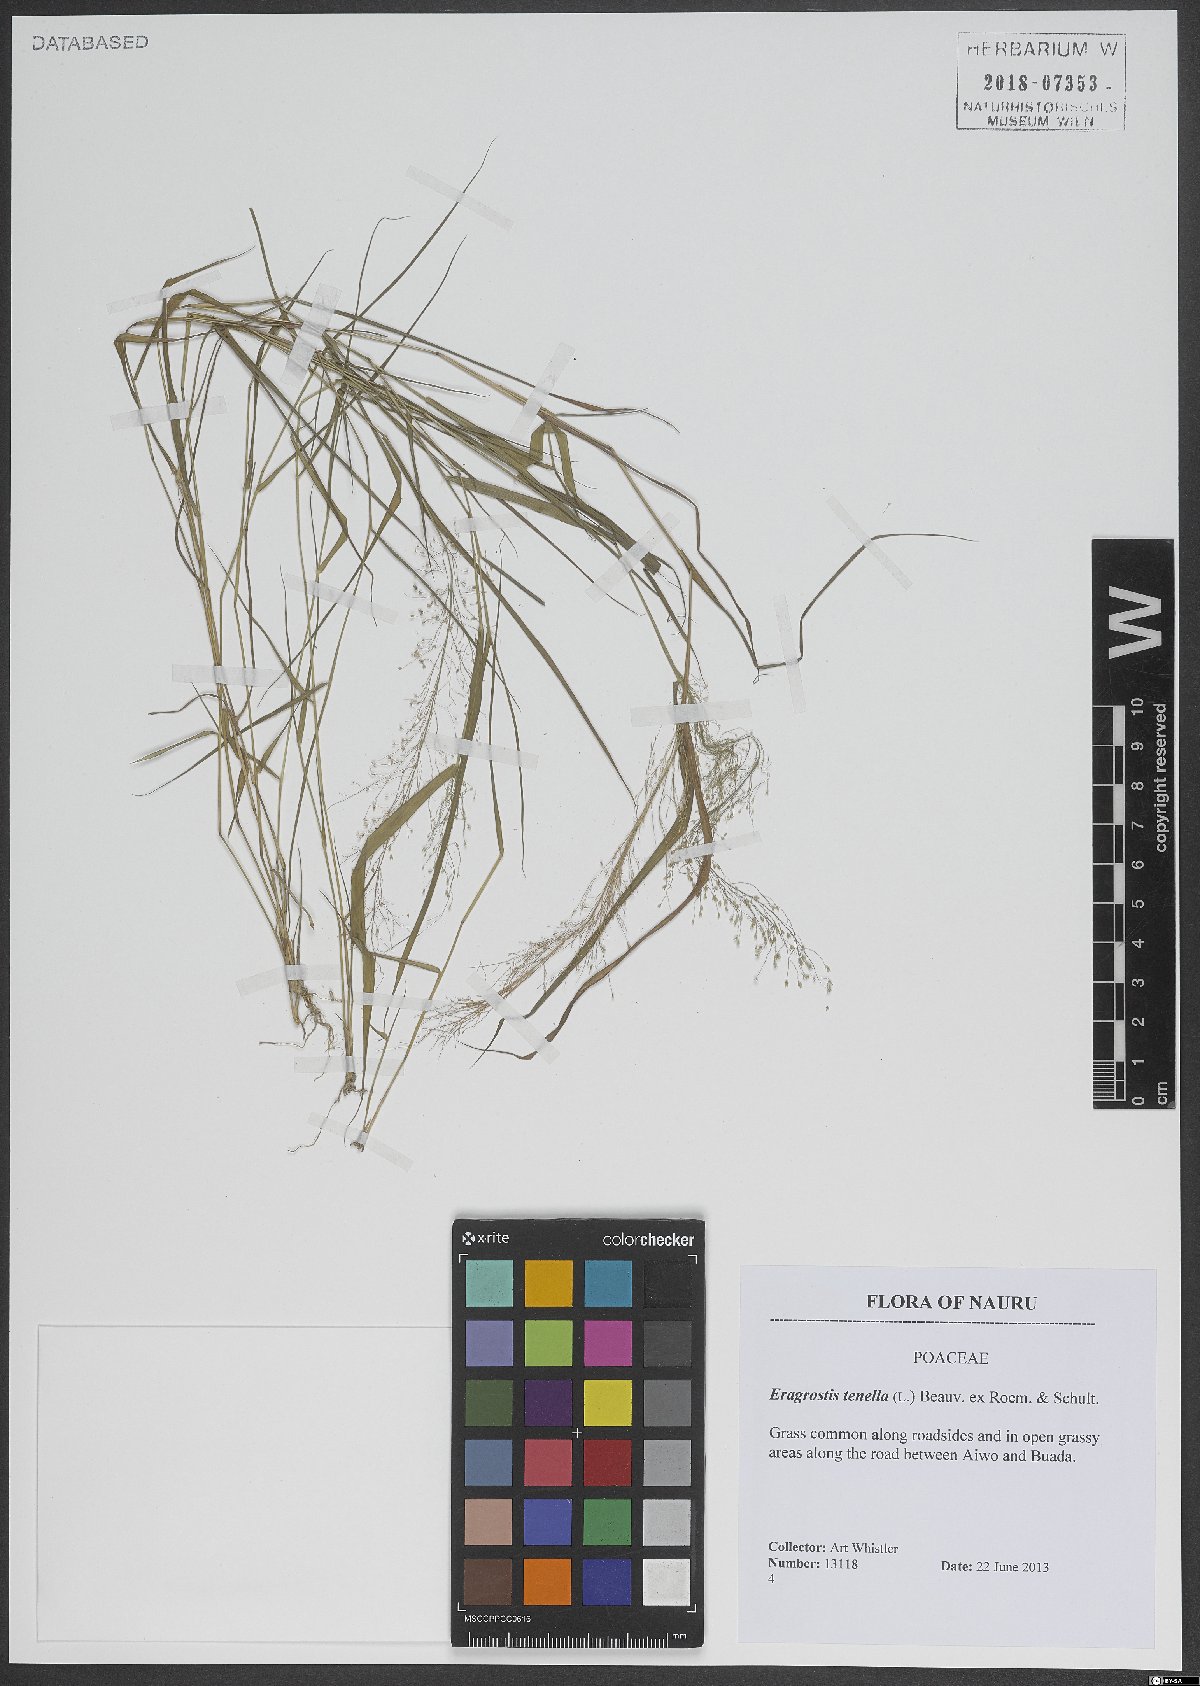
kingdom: Plantae
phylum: Tracheophyta
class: Liliopsida
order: Poales
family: Poaceae
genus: Eragrostis
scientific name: Eragrostis tenella
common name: Japanese lovegrass
